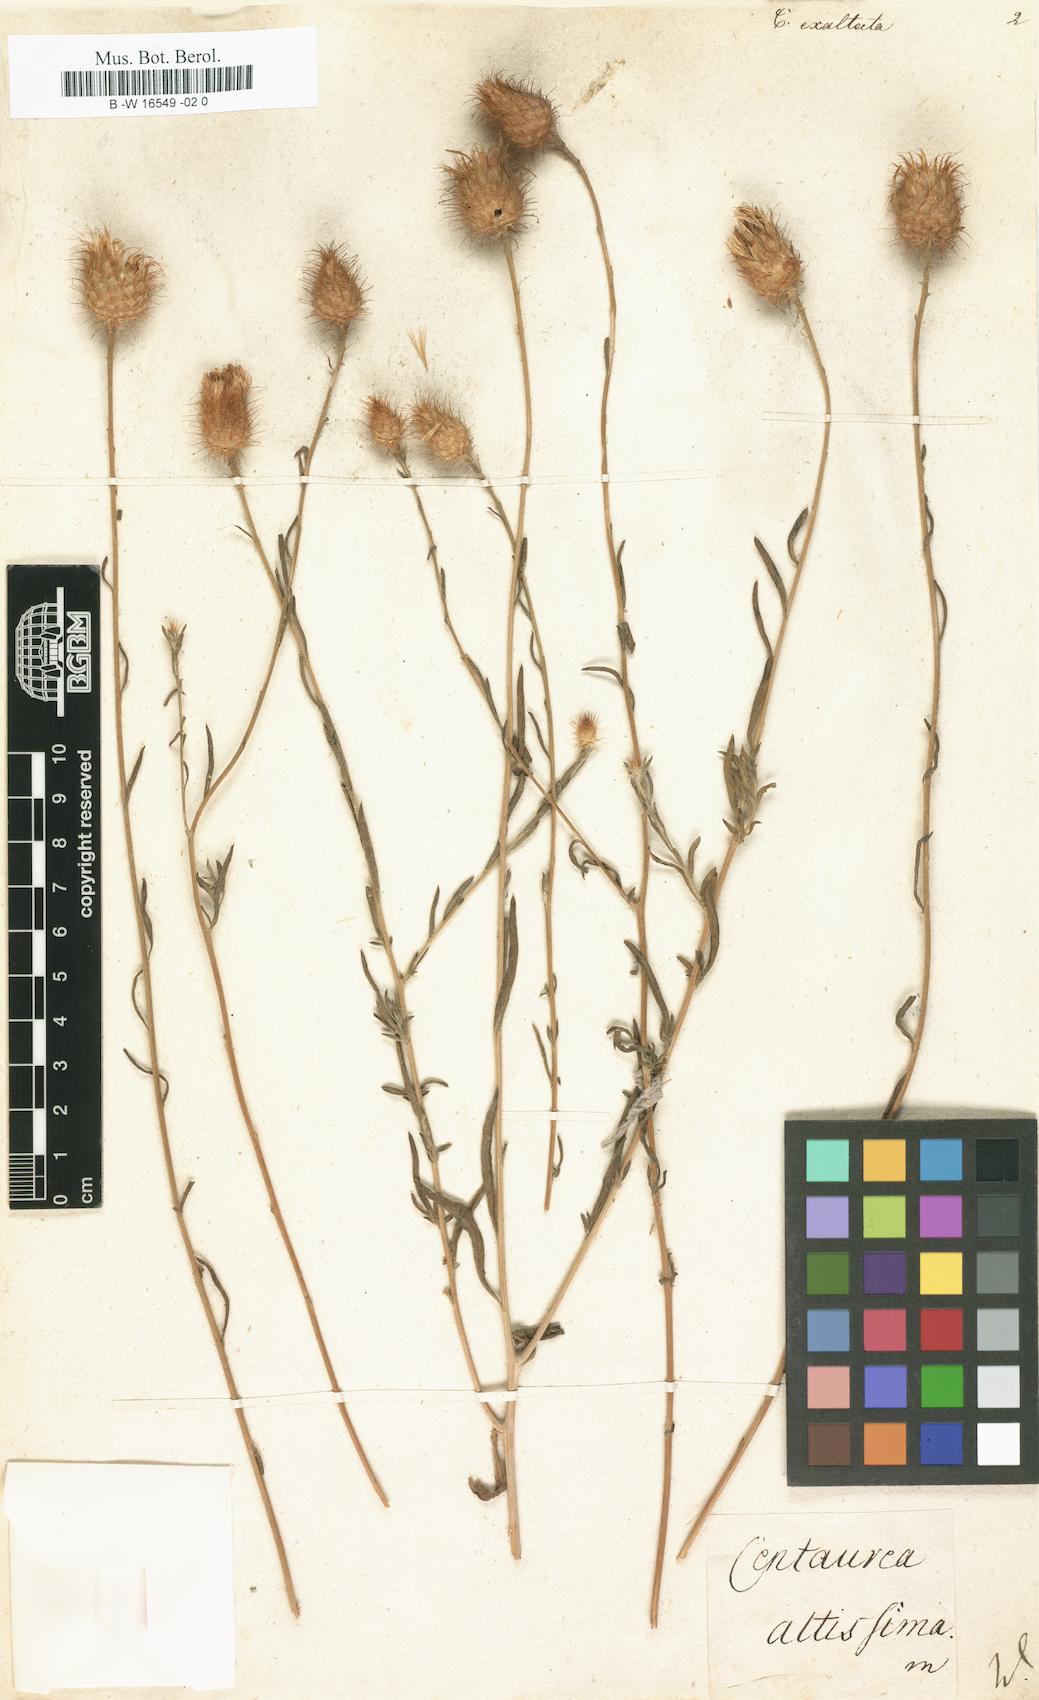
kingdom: Plantae
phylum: Tracheophyta
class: Magnoliopsida
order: Asterales
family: Asteraceae
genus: Stizolophus
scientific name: Stizolophus coronopifolius
